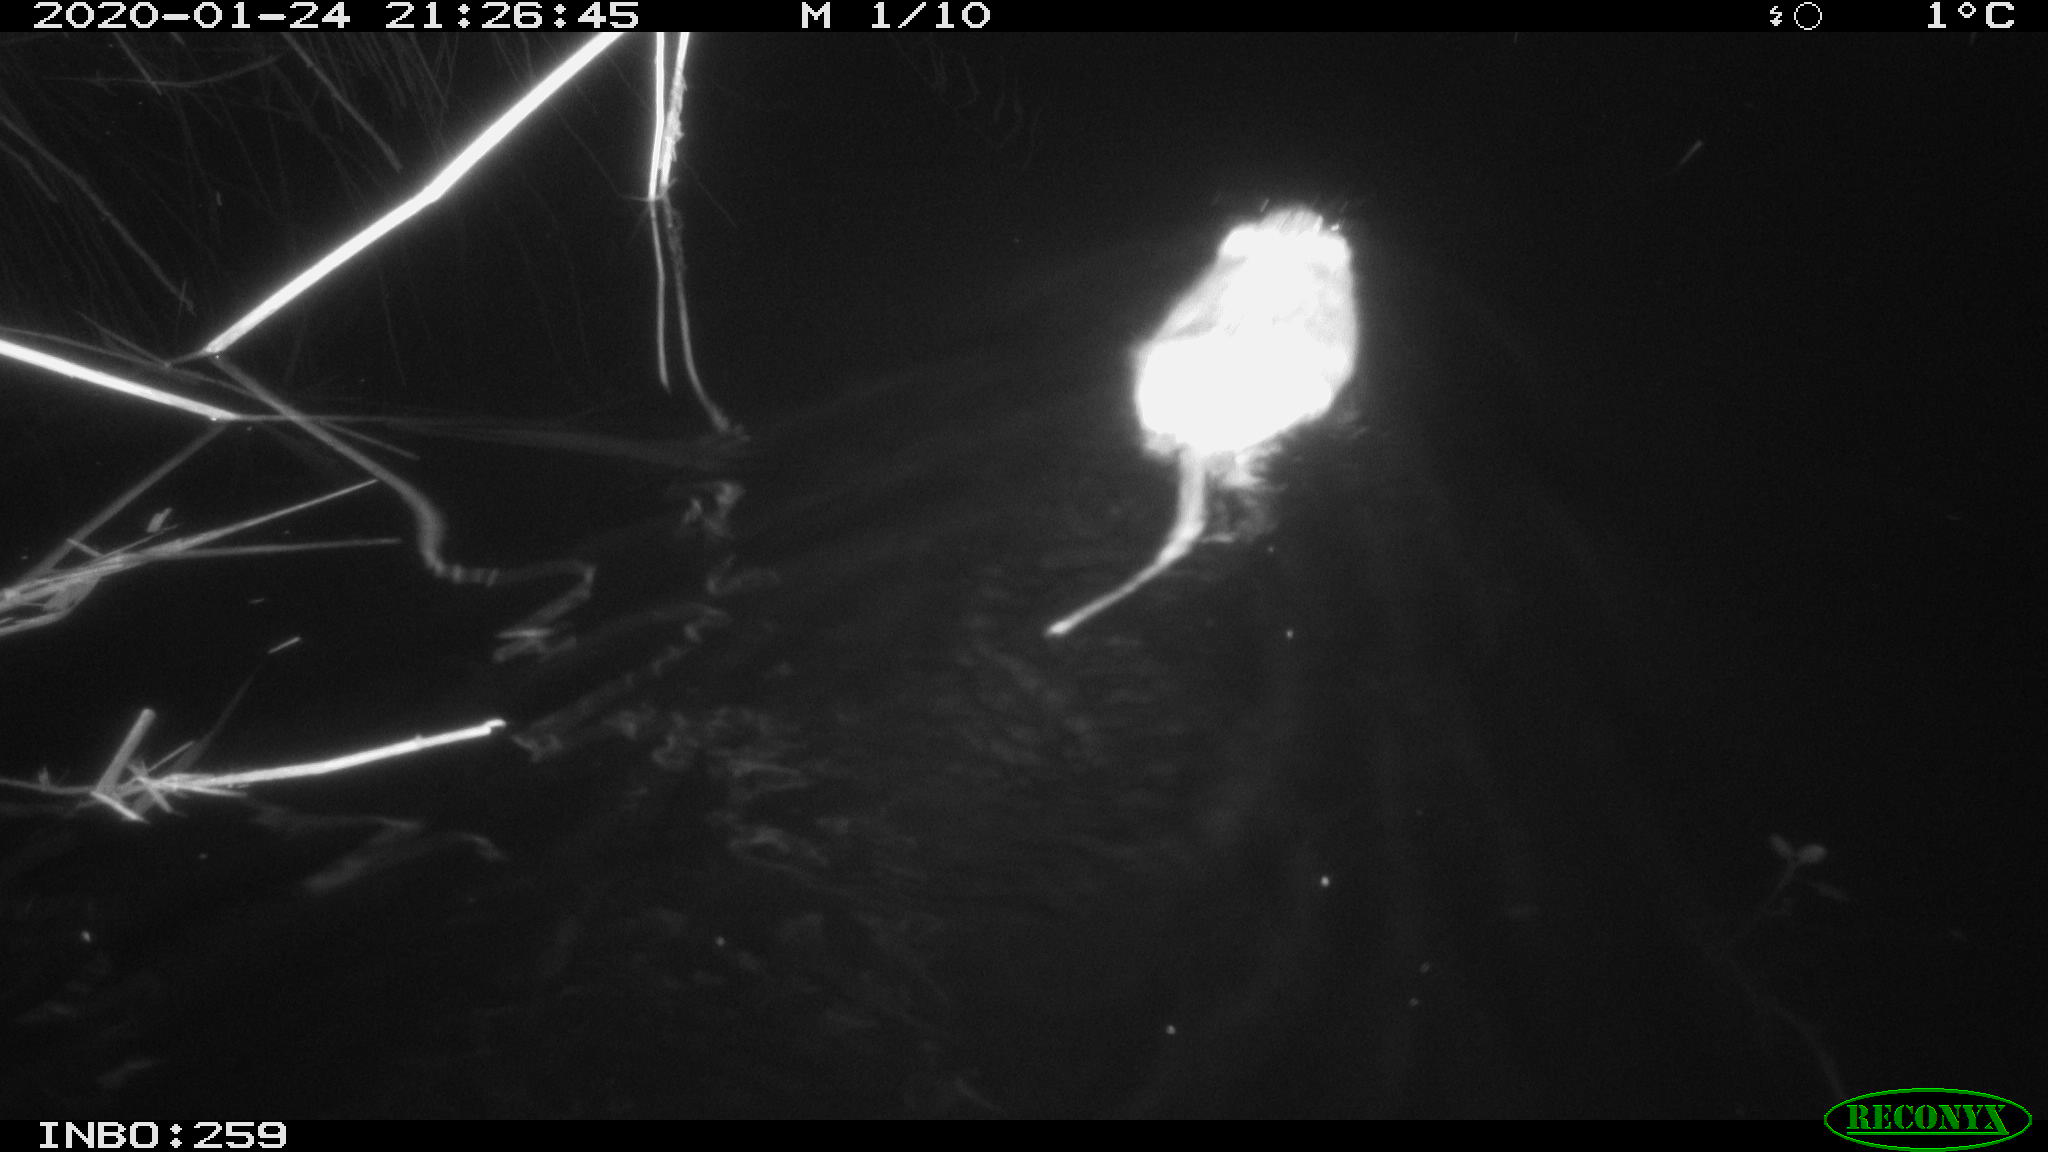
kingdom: Animalia
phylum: Chordata
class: Mammalia
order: Rodentia
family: Cricetidae
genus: Ondatra
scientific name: Ondatra zibethicus
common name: Muskrat
